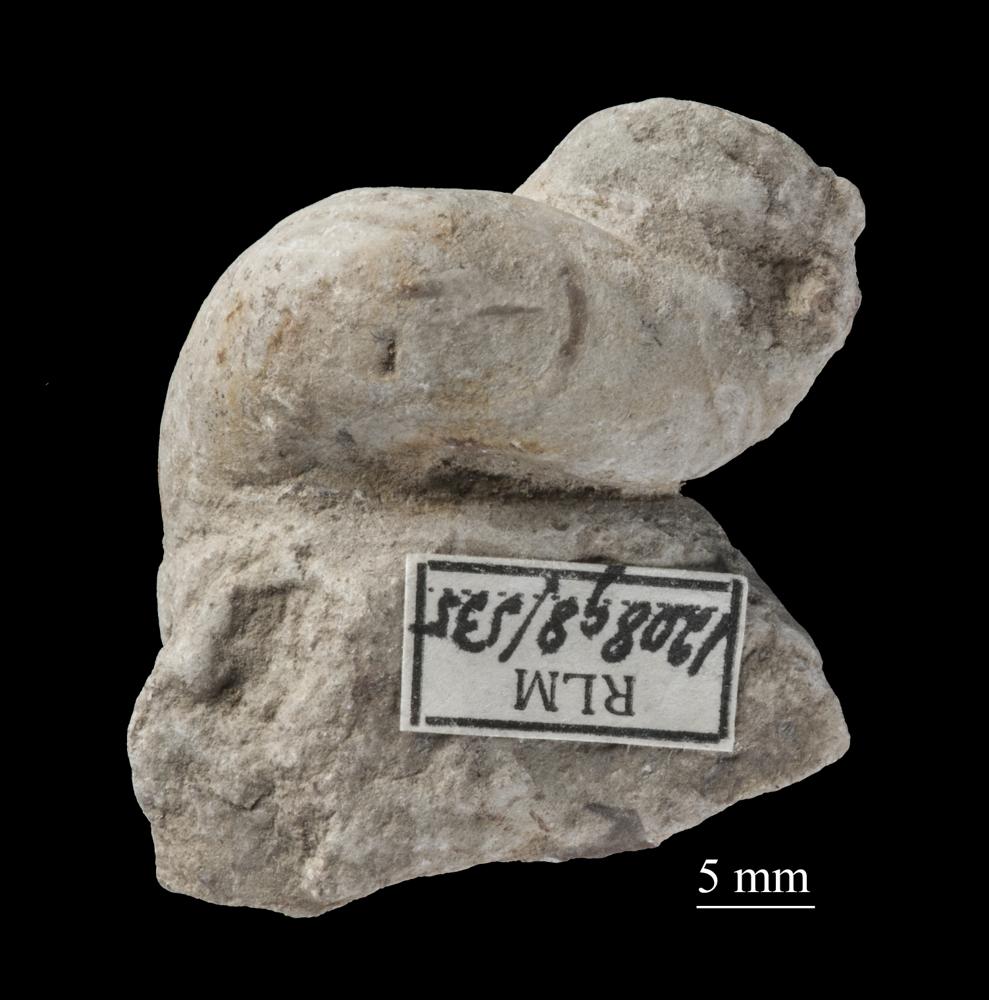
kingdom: Animalia
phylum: Mollusca
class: Gastropoda
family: Lophospiridae
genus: Loxoplocus
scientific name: Loxoplocus Worthenia vermetus
